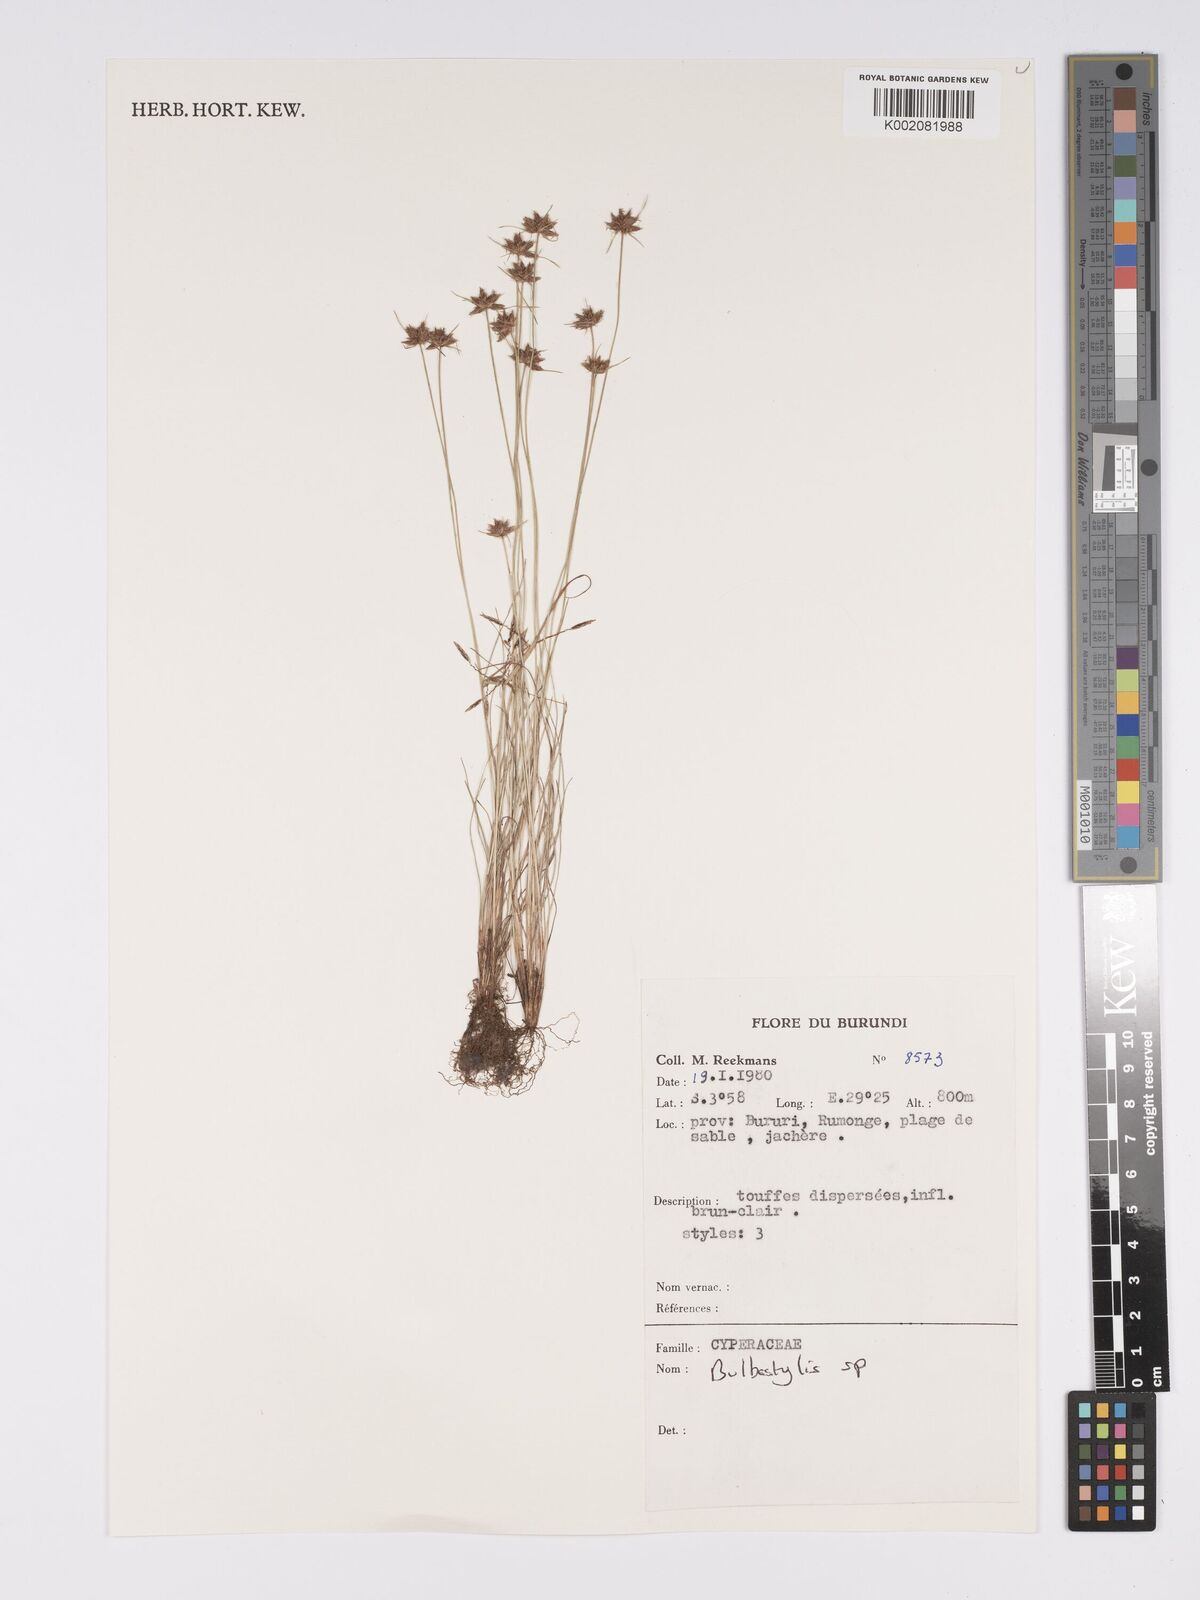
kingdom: Plantae
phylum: Tracheophyta
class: Magnoliopsida
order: Asterales
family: Asteraceae
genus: Bulbostylis
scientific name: Bulbostylis
